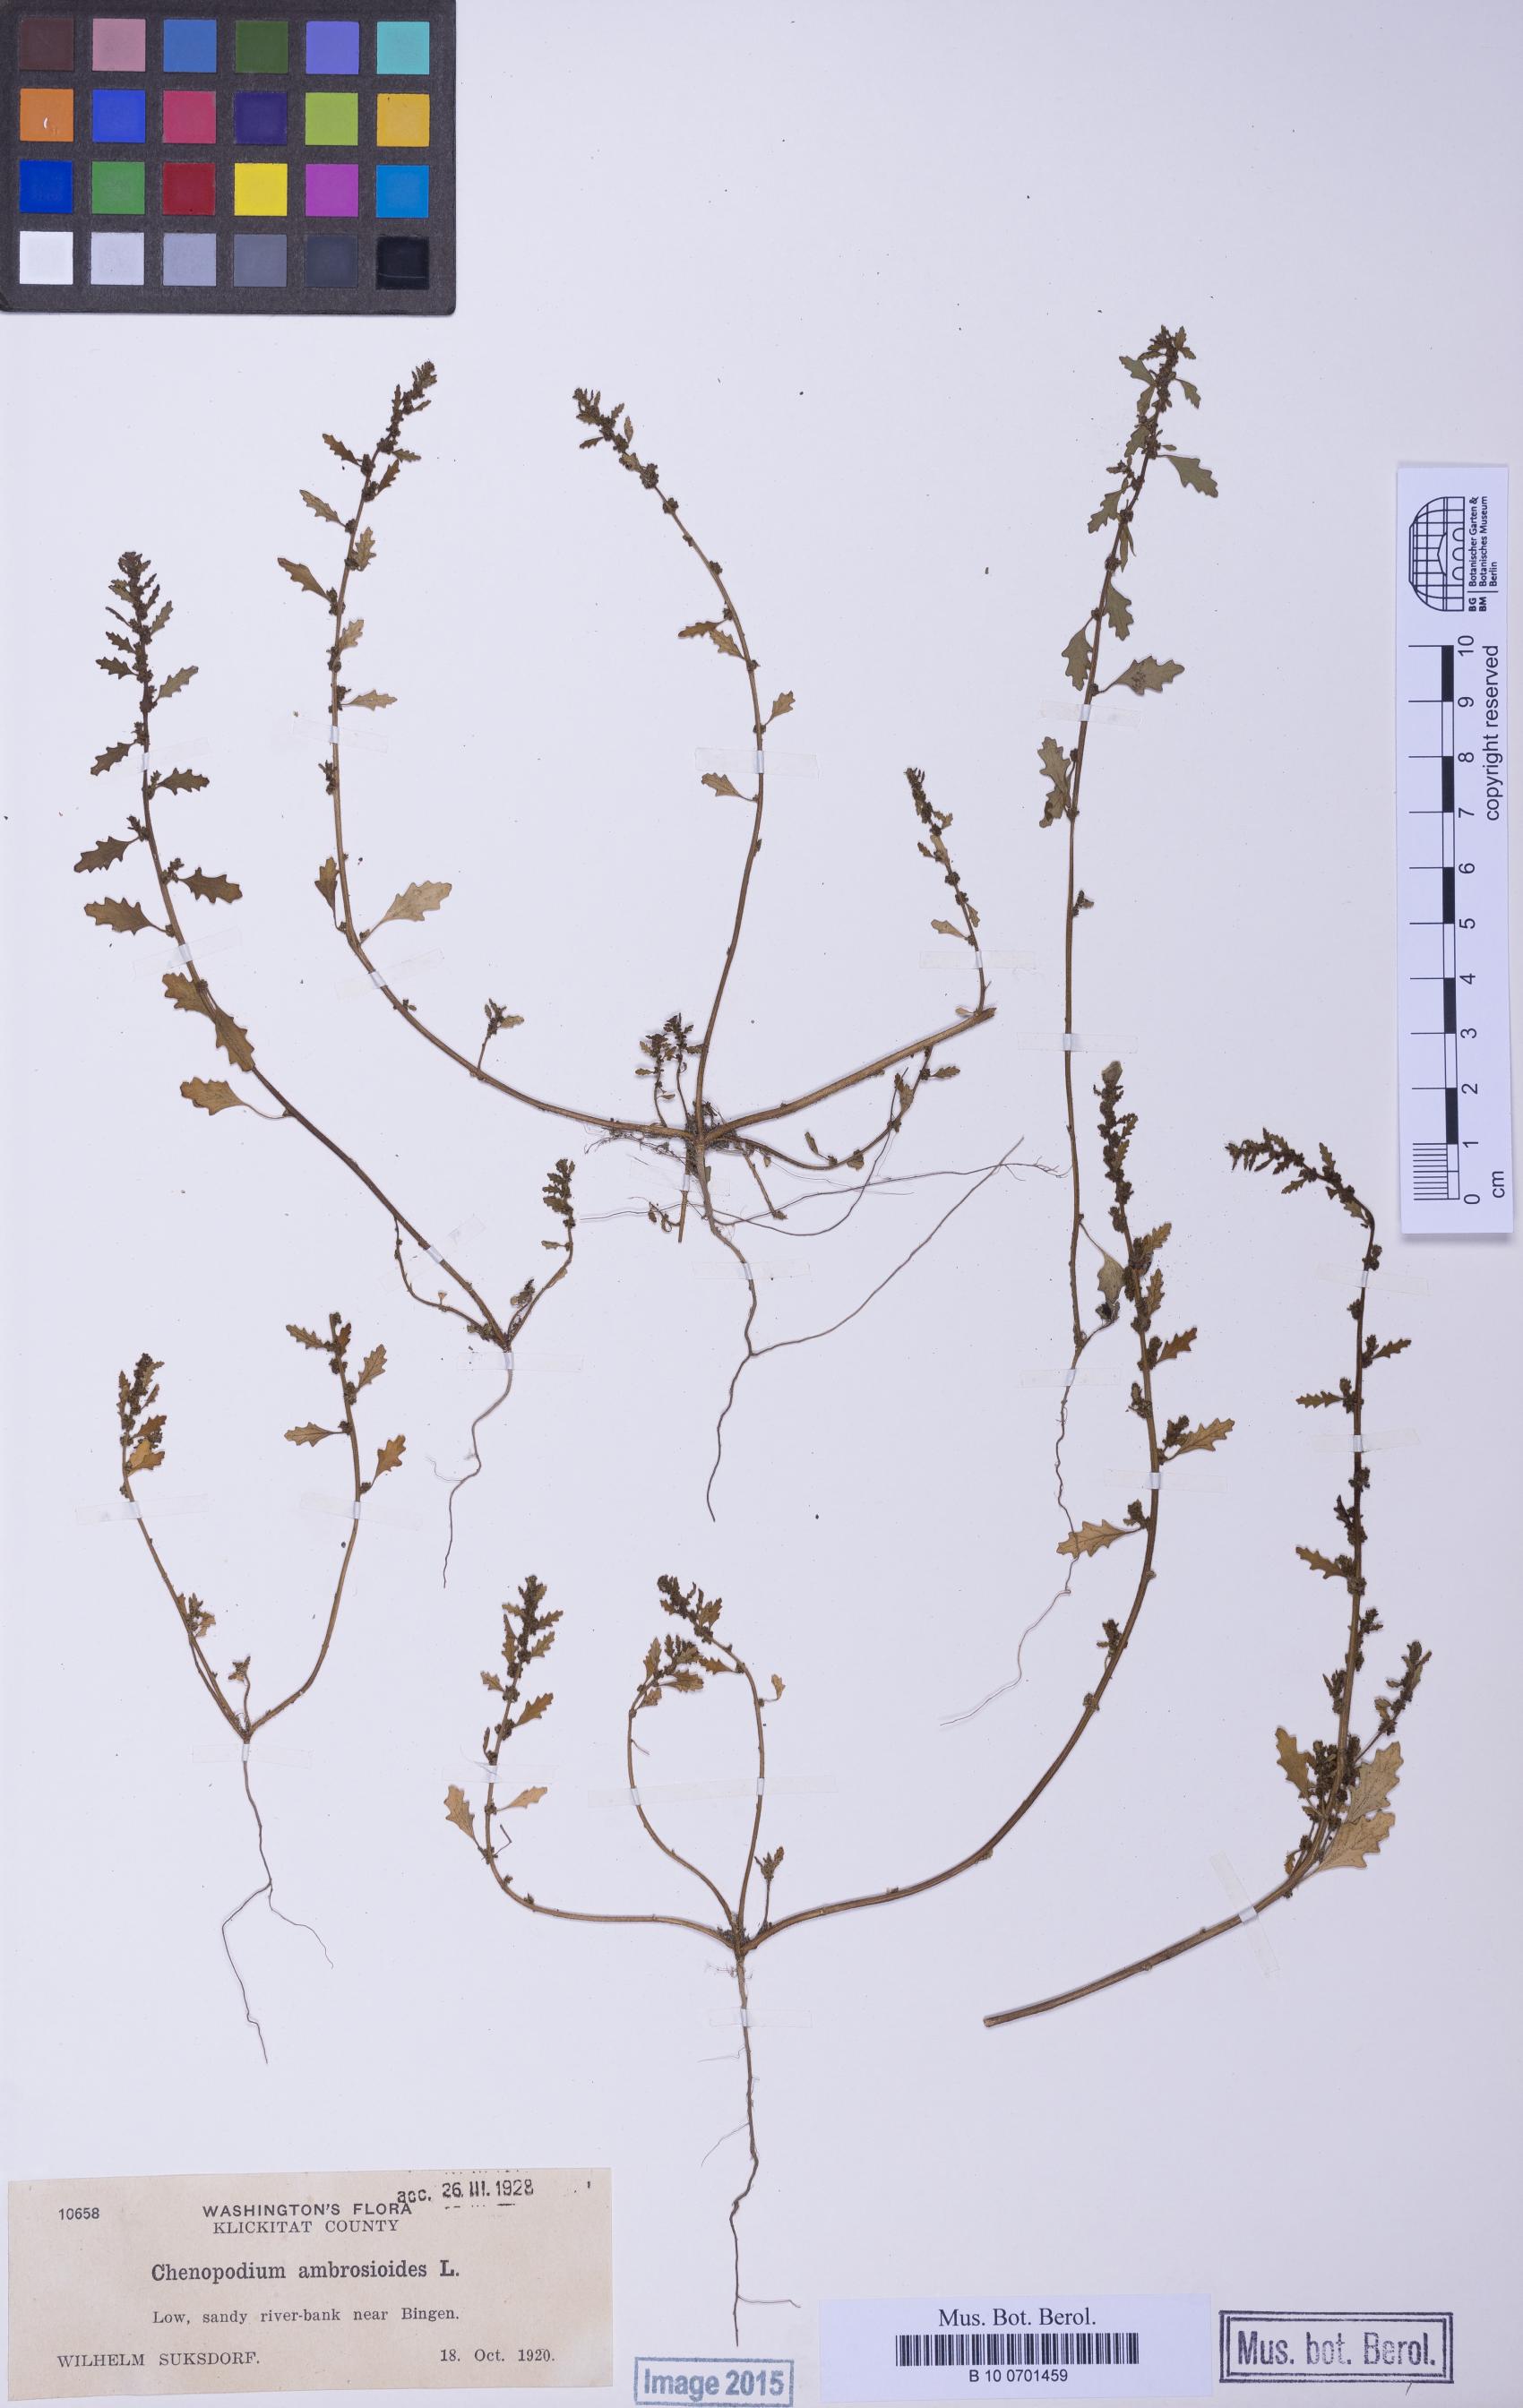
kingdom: Plantae
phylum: Tracheophyta
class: Magnoliopsida
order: Caryophyllales
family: Amaranthaceae
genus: Dysphania
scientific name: Dysphania carinata
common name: Keeled wormseed
